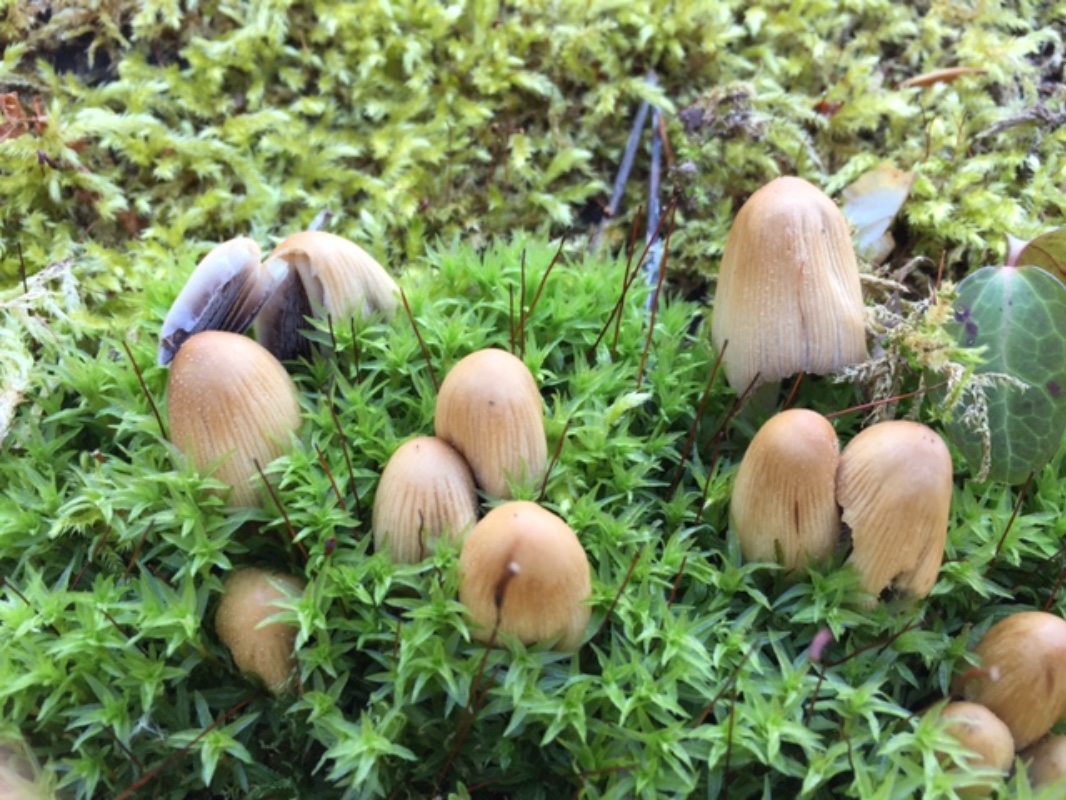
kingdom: Fungi
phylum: Basidiomycota
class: Agaricomycetes
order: Agaricales
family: Psathyrellaceae
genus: Coprinellus
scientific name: Coprinellus micaceus
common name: glimmer-blækhat
